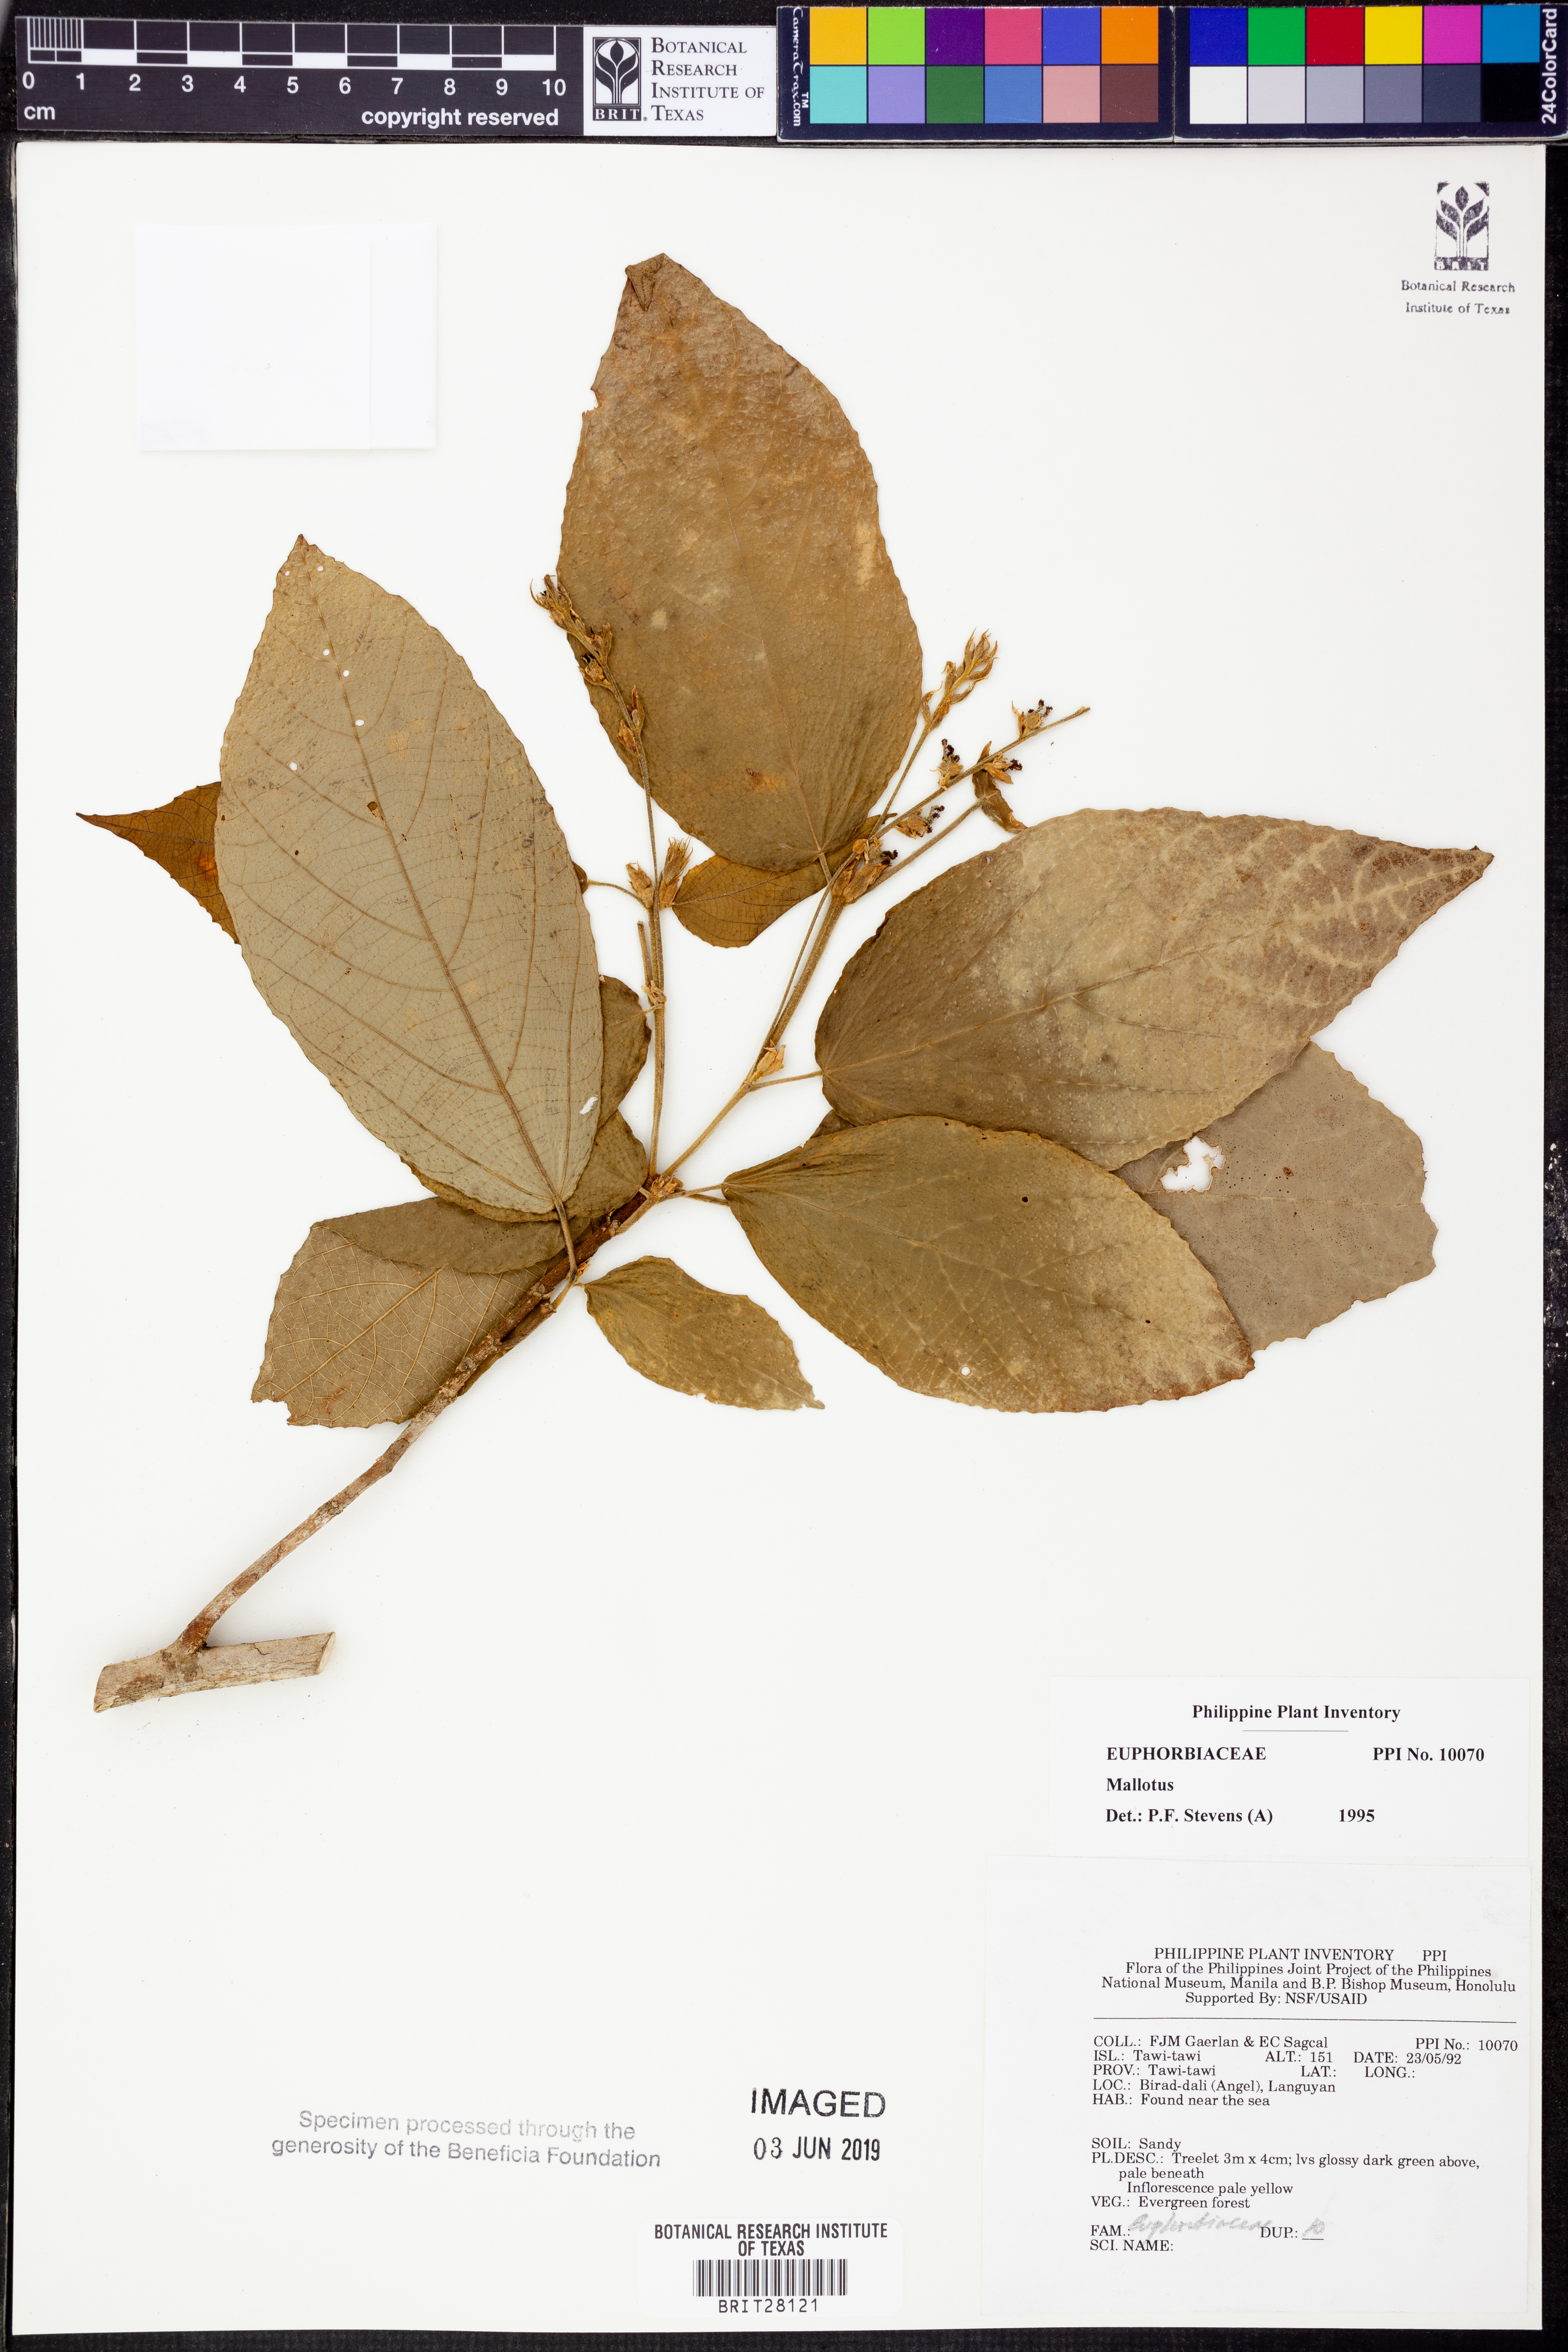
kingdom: Plantae
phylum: Tracheophyta
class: Magnoliopsida
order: Malpighiales
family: Euphorbiaceae
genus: Mallotus
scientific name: Mallotus
